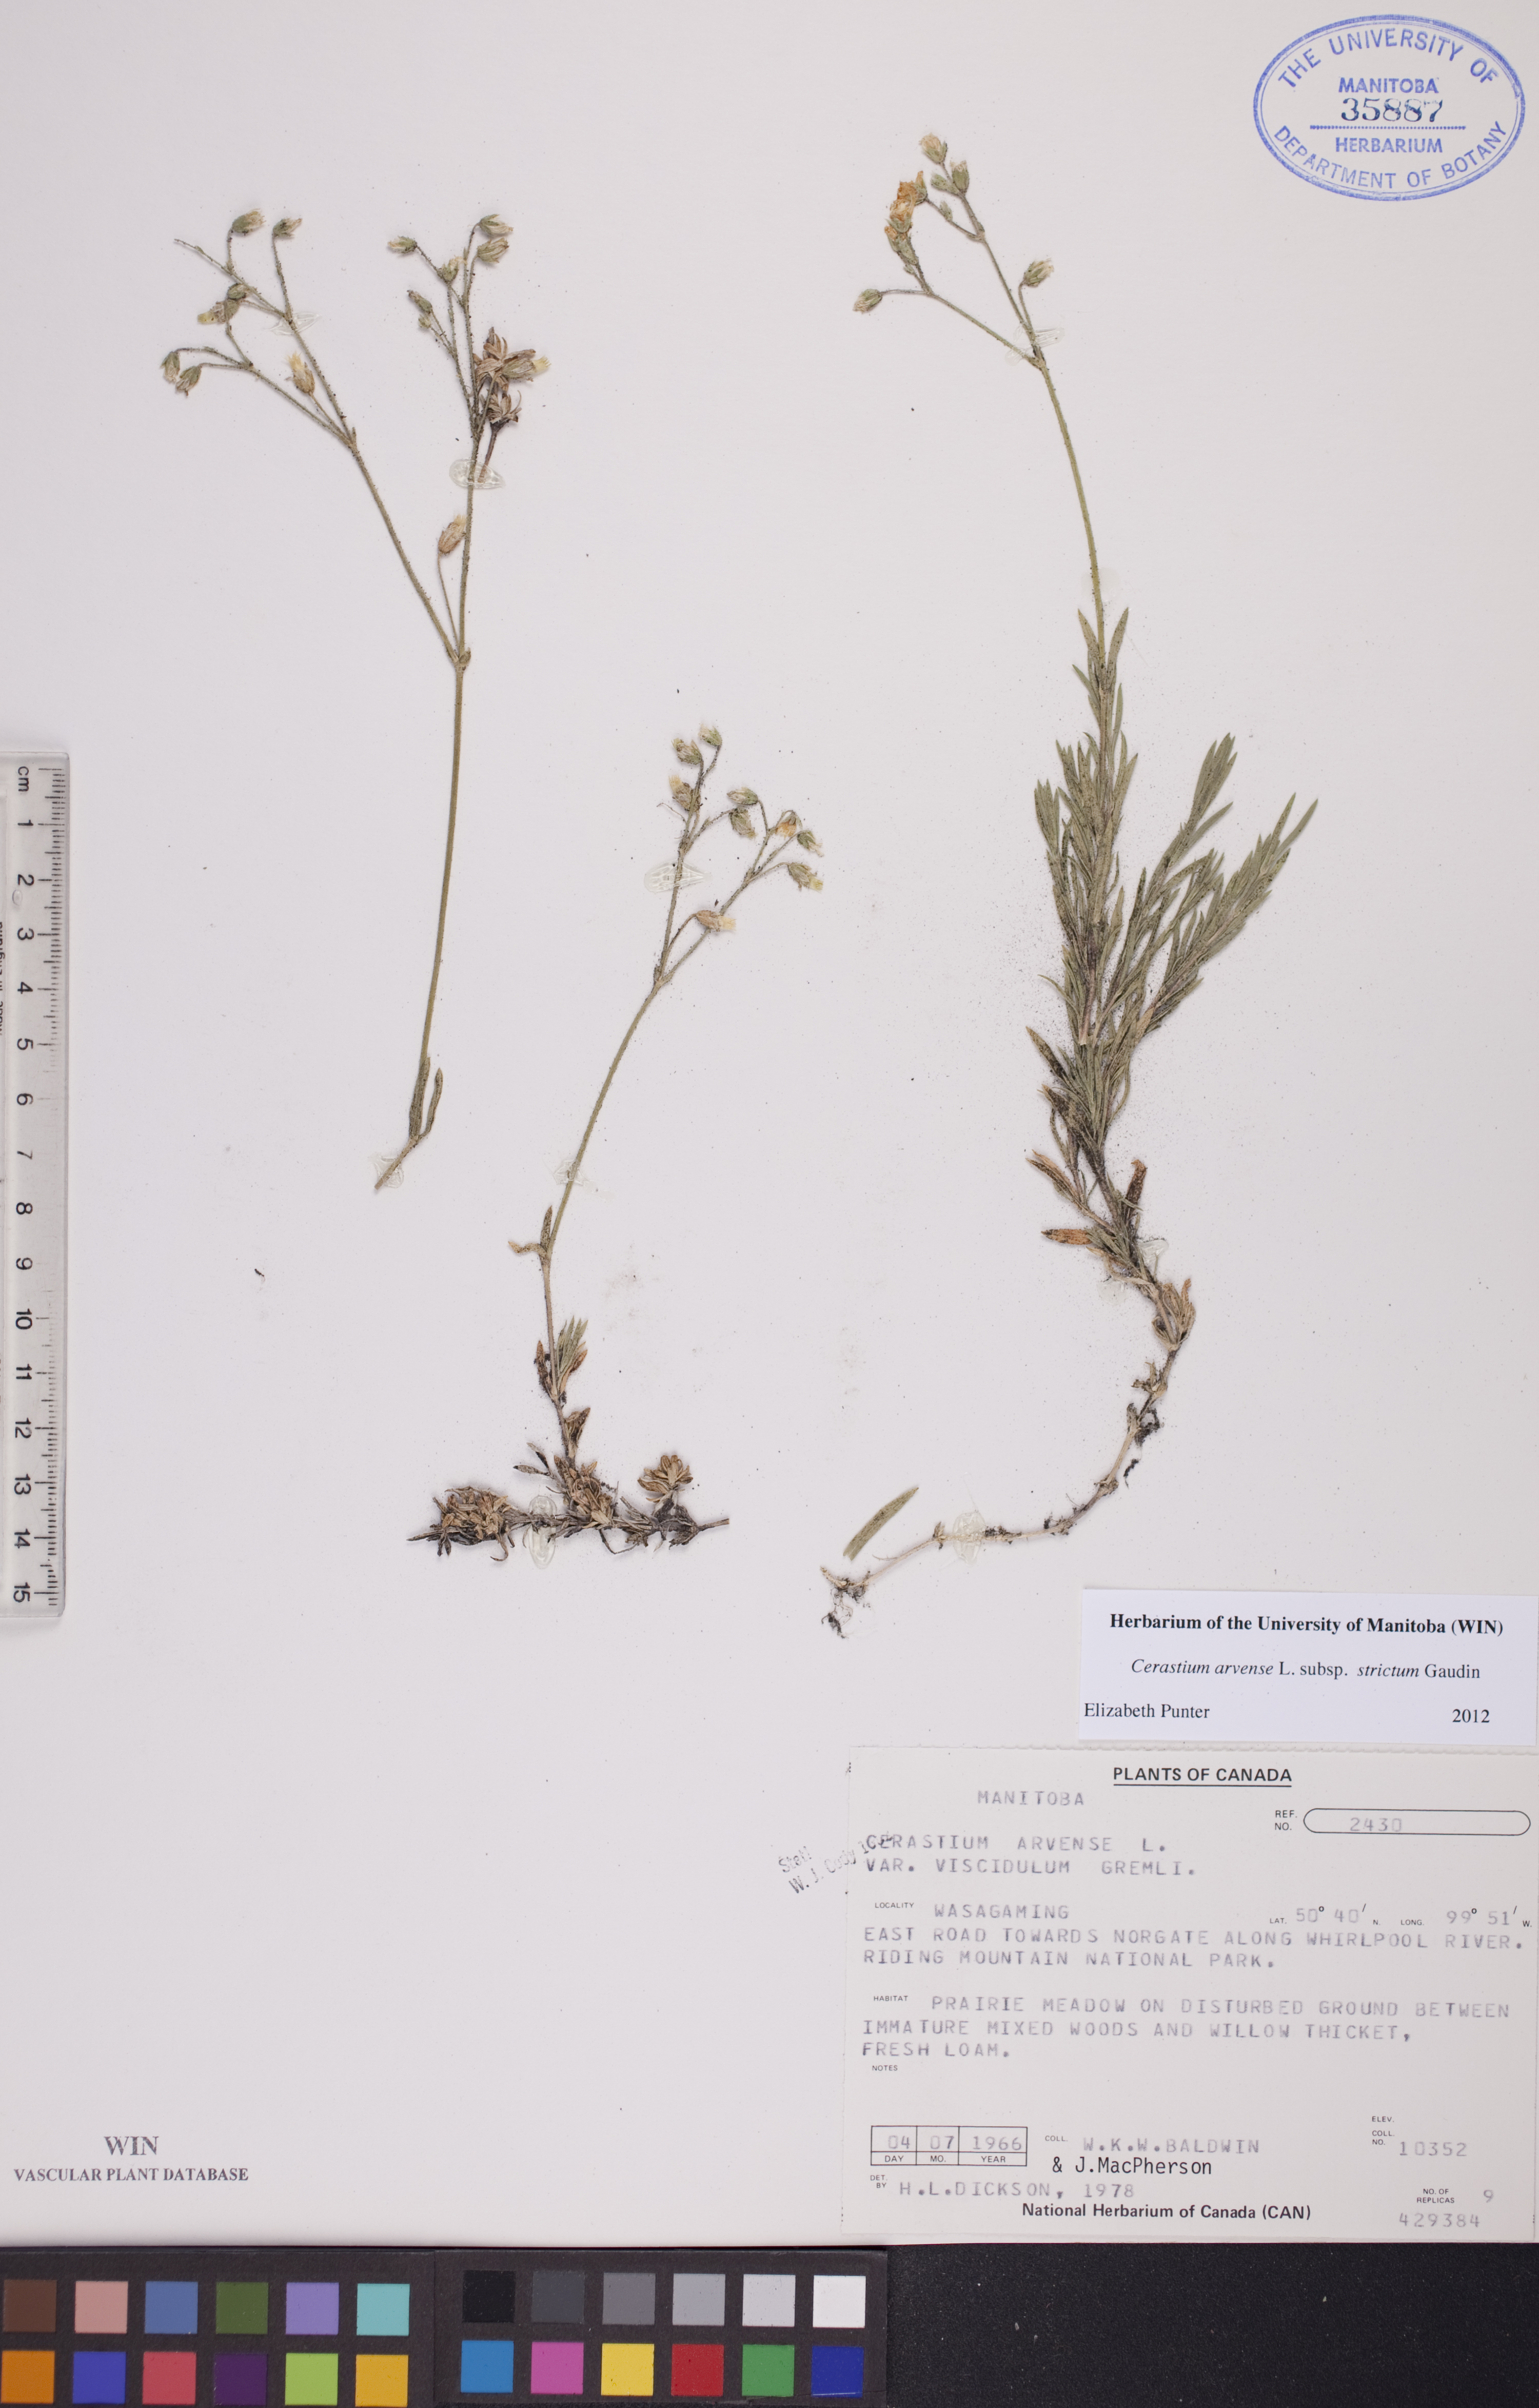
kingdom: Plantae
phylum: Tracheophyta
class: Magnoliopsida
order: Caryophyllales
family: Caryophyllaceae
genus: Cerastium
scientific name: Cerastium elongatum
